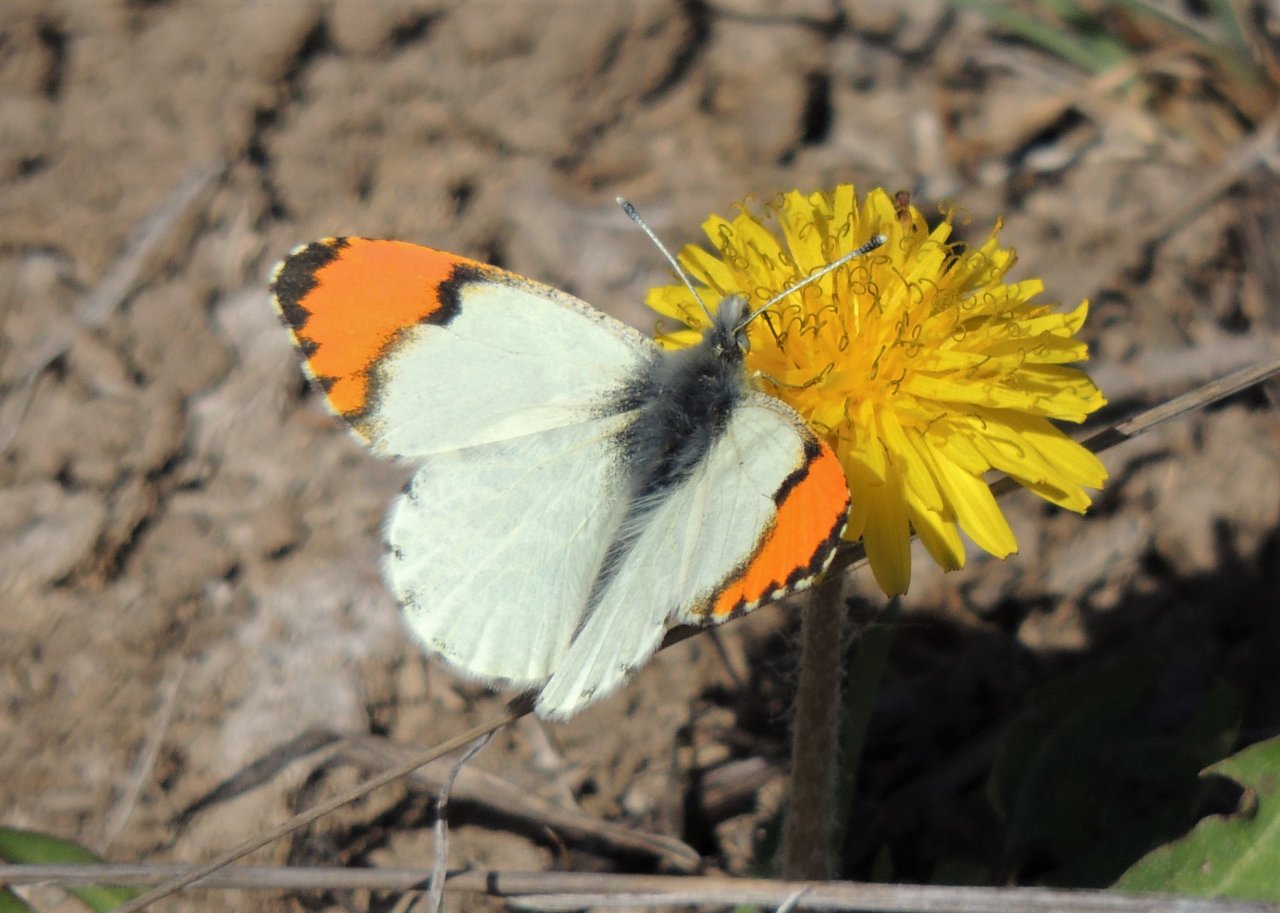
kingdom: Animalia
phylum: Arthropoda
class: Insecta
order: Lepidoptera
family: Pieridae
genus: Anthocharis
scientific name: Anthocharis sara
